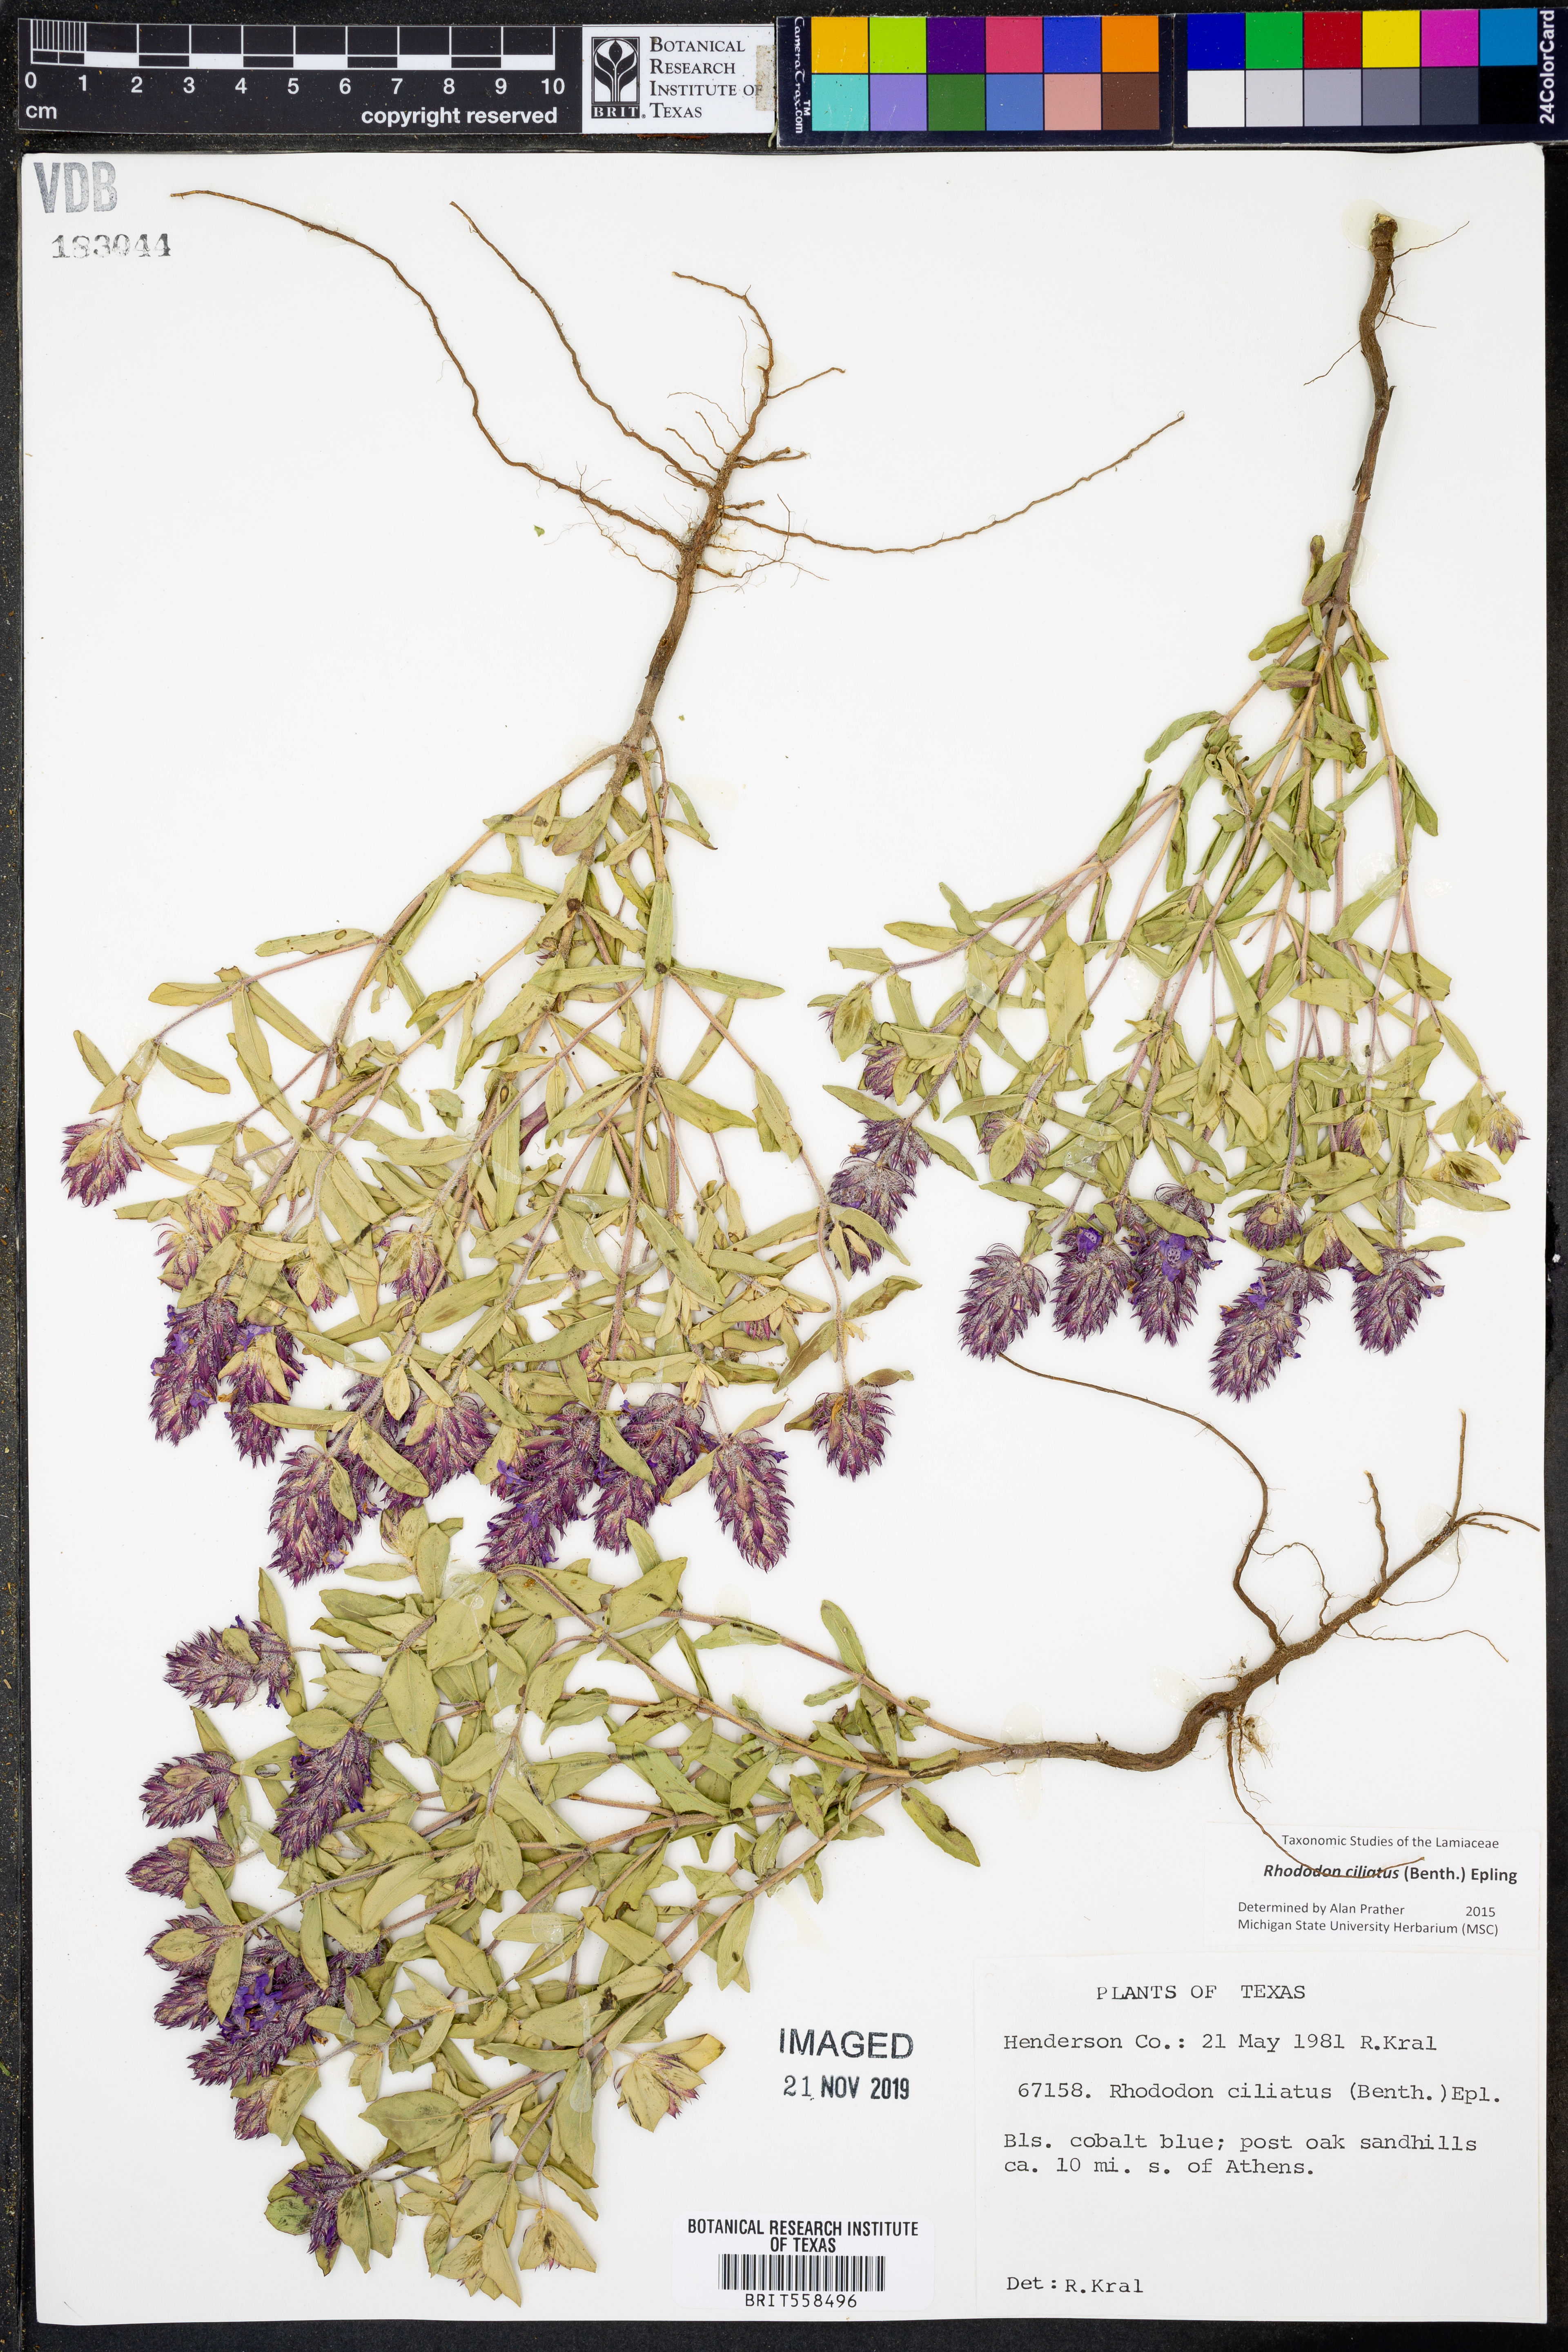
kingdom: Plantae
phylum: Tracheophyta
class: Magnoliopsida
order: Lamiales
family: Lamiaceae
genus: Rhododon
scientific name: Rhododon ciliatus
